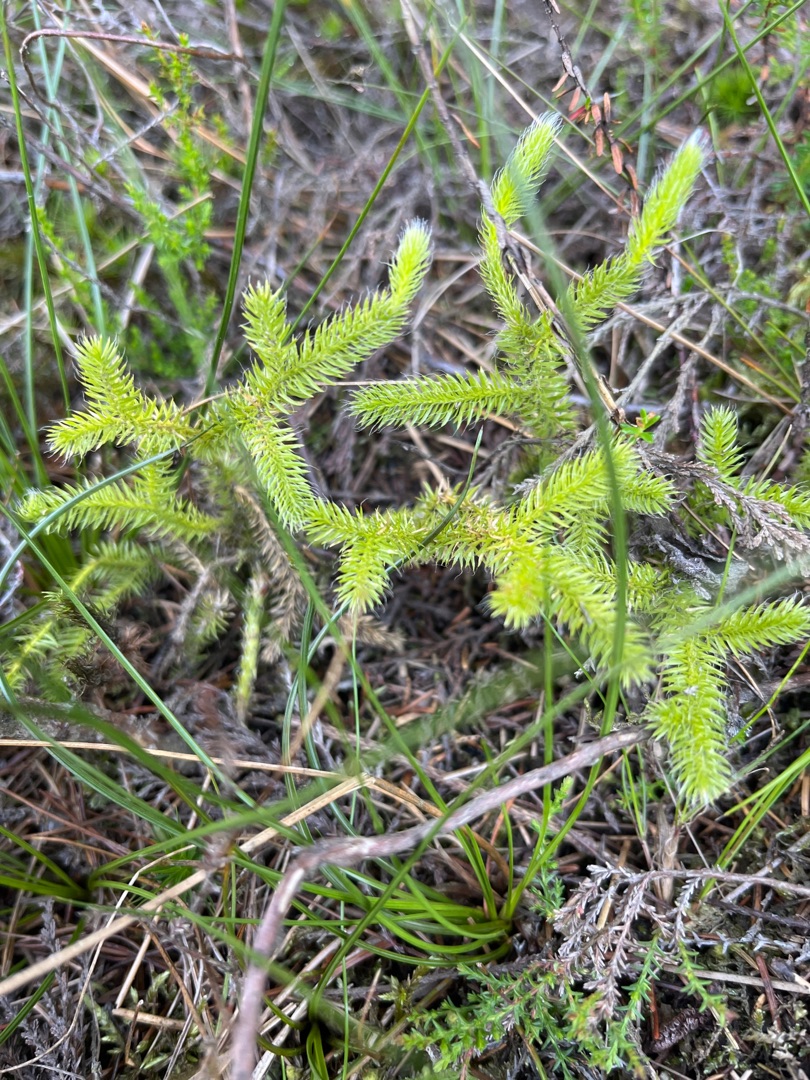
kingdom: Plantae
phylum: Tracheophyta
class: Lycopodiopsida
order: Lycopodiales
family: Lycopodiaceae
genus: Lycopodium
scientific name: Lycopodium clavatum
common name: Almindelig ulvefod
